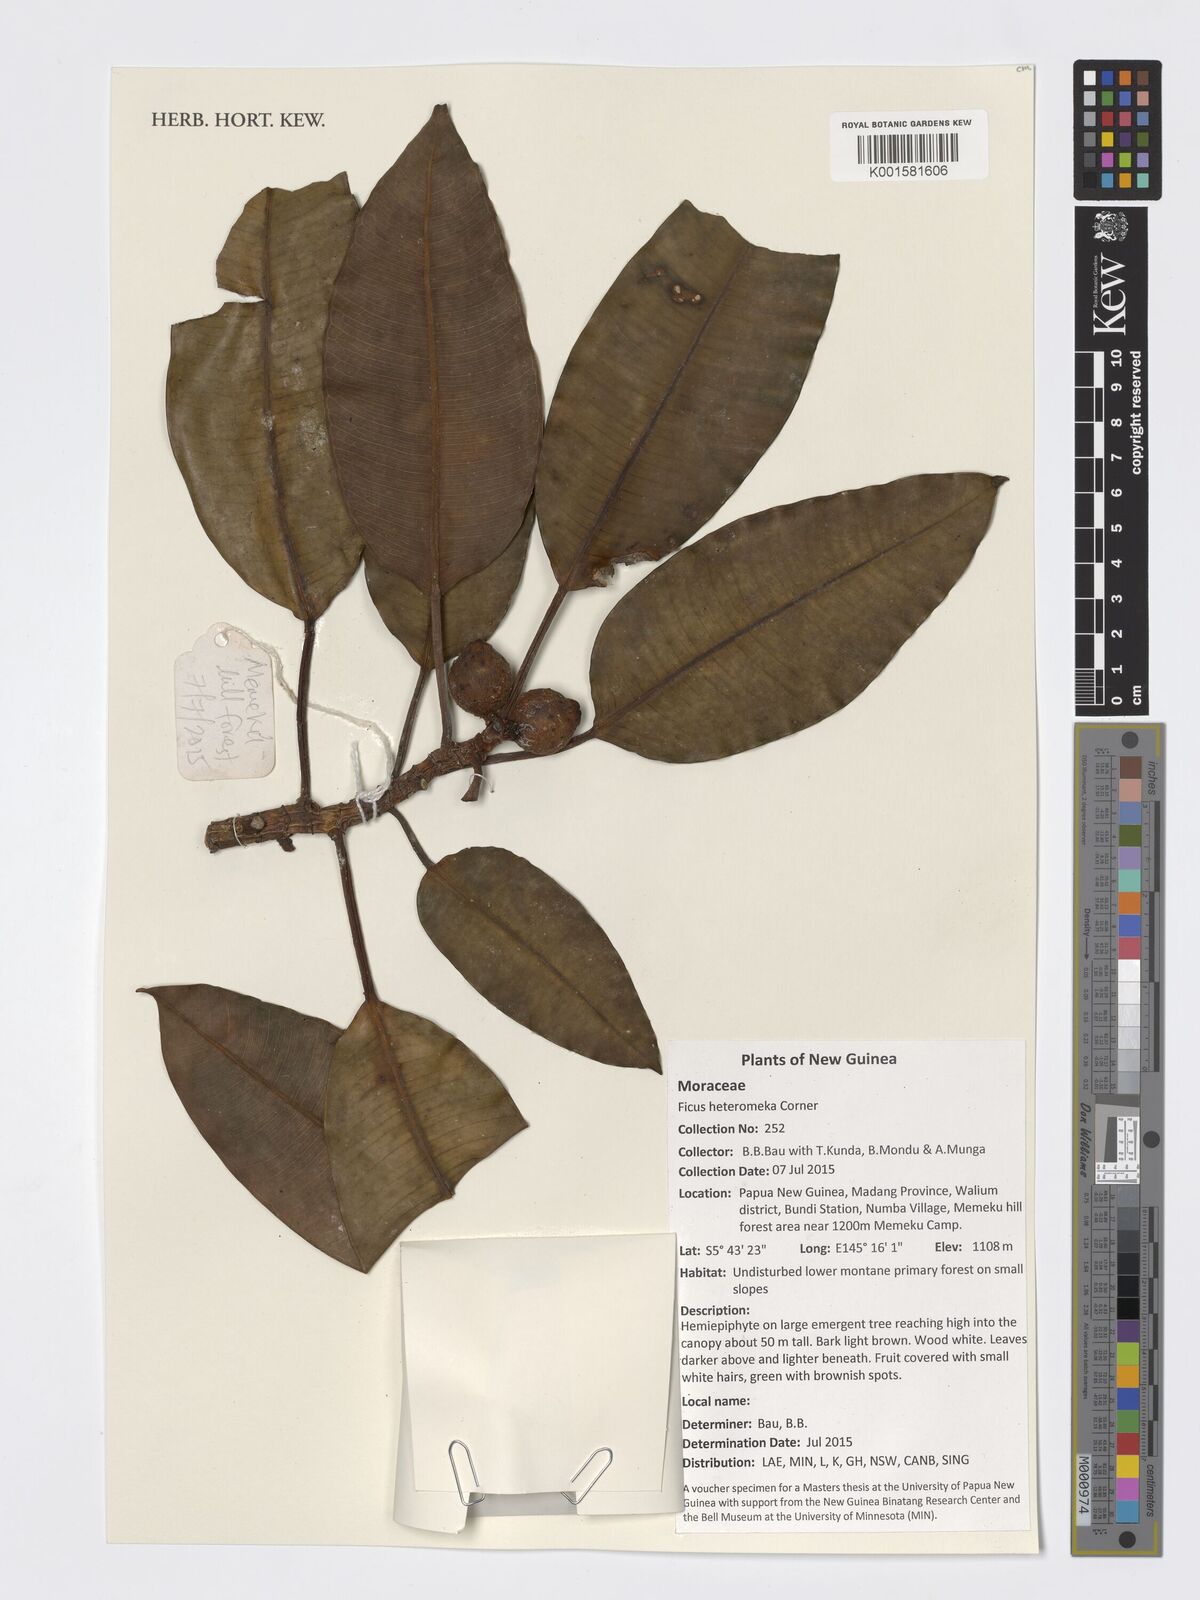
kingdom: Plantae
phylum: Tracheophyta
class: Magnoliopsida
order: Rosales
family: Moraceae
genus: Ficus
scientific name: Ficus hesperidiiformis
